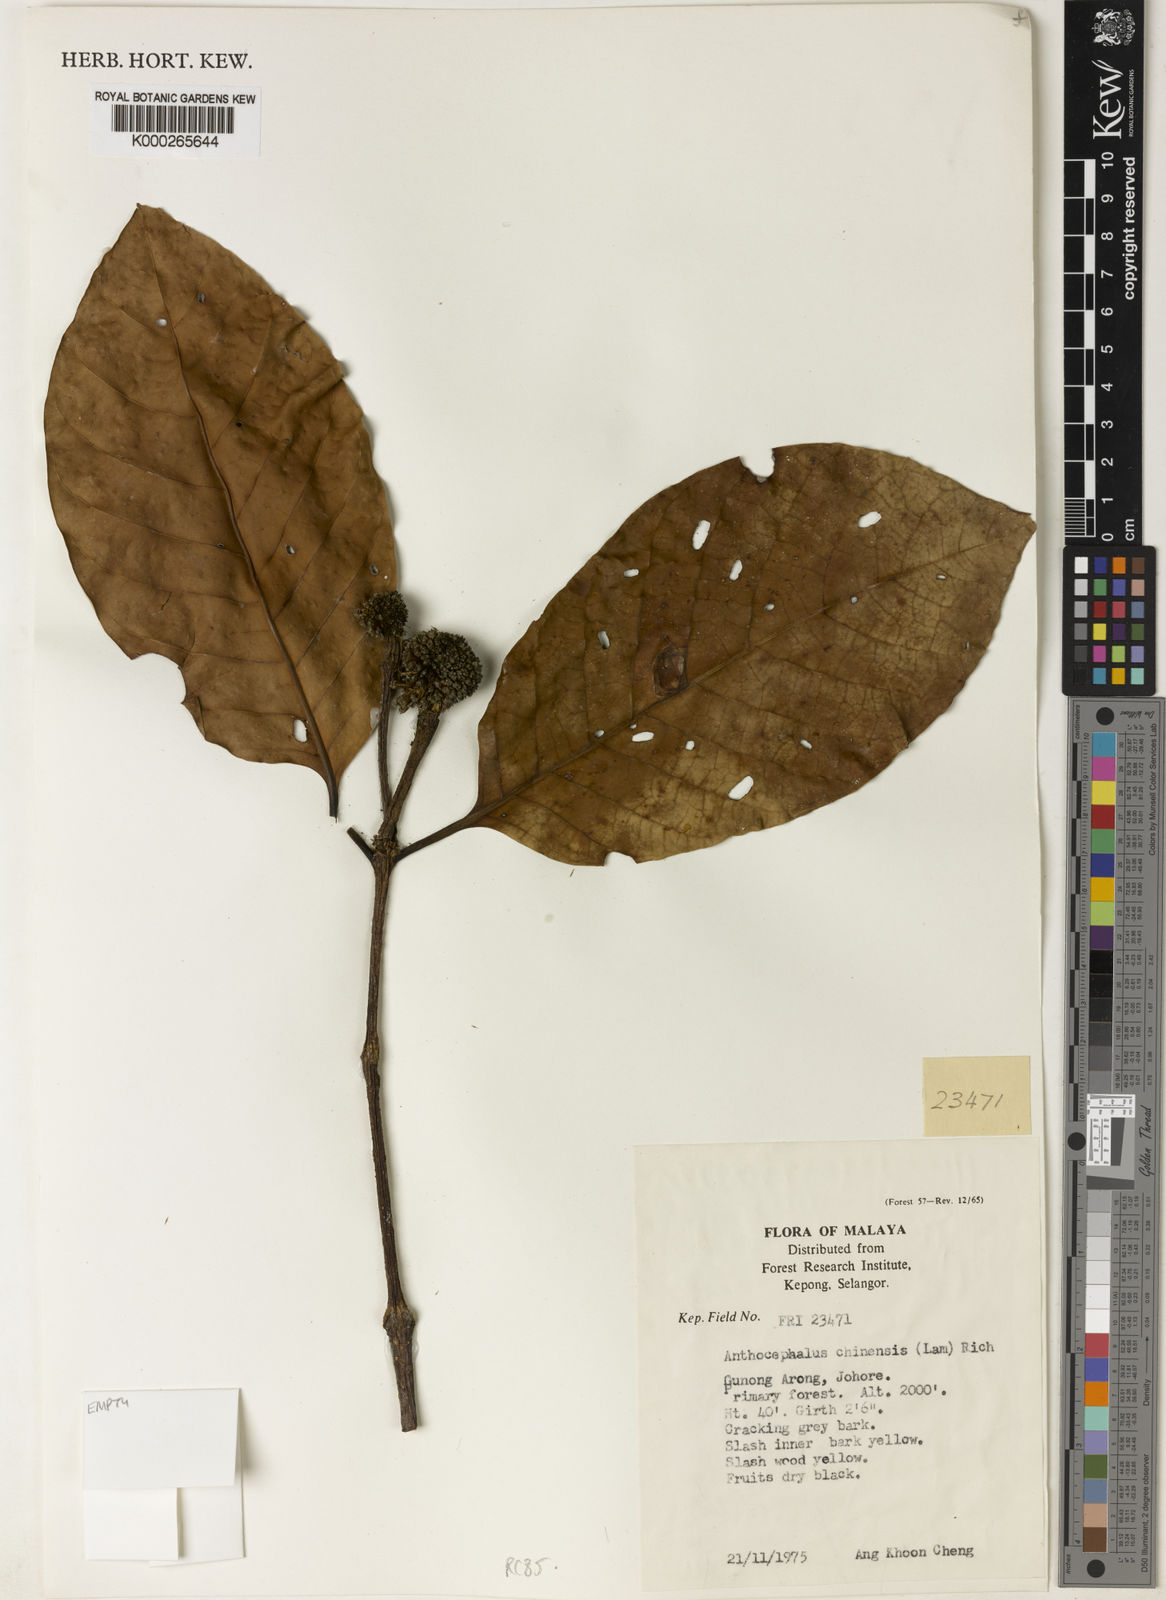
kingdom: Plantae
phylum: Tracheophyta
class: Magnoliopsida
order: Gentianales
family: Rubiaceae
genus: Neolamarckia
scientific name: Neolamarckia cadamba
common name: Leichhardt-pine
